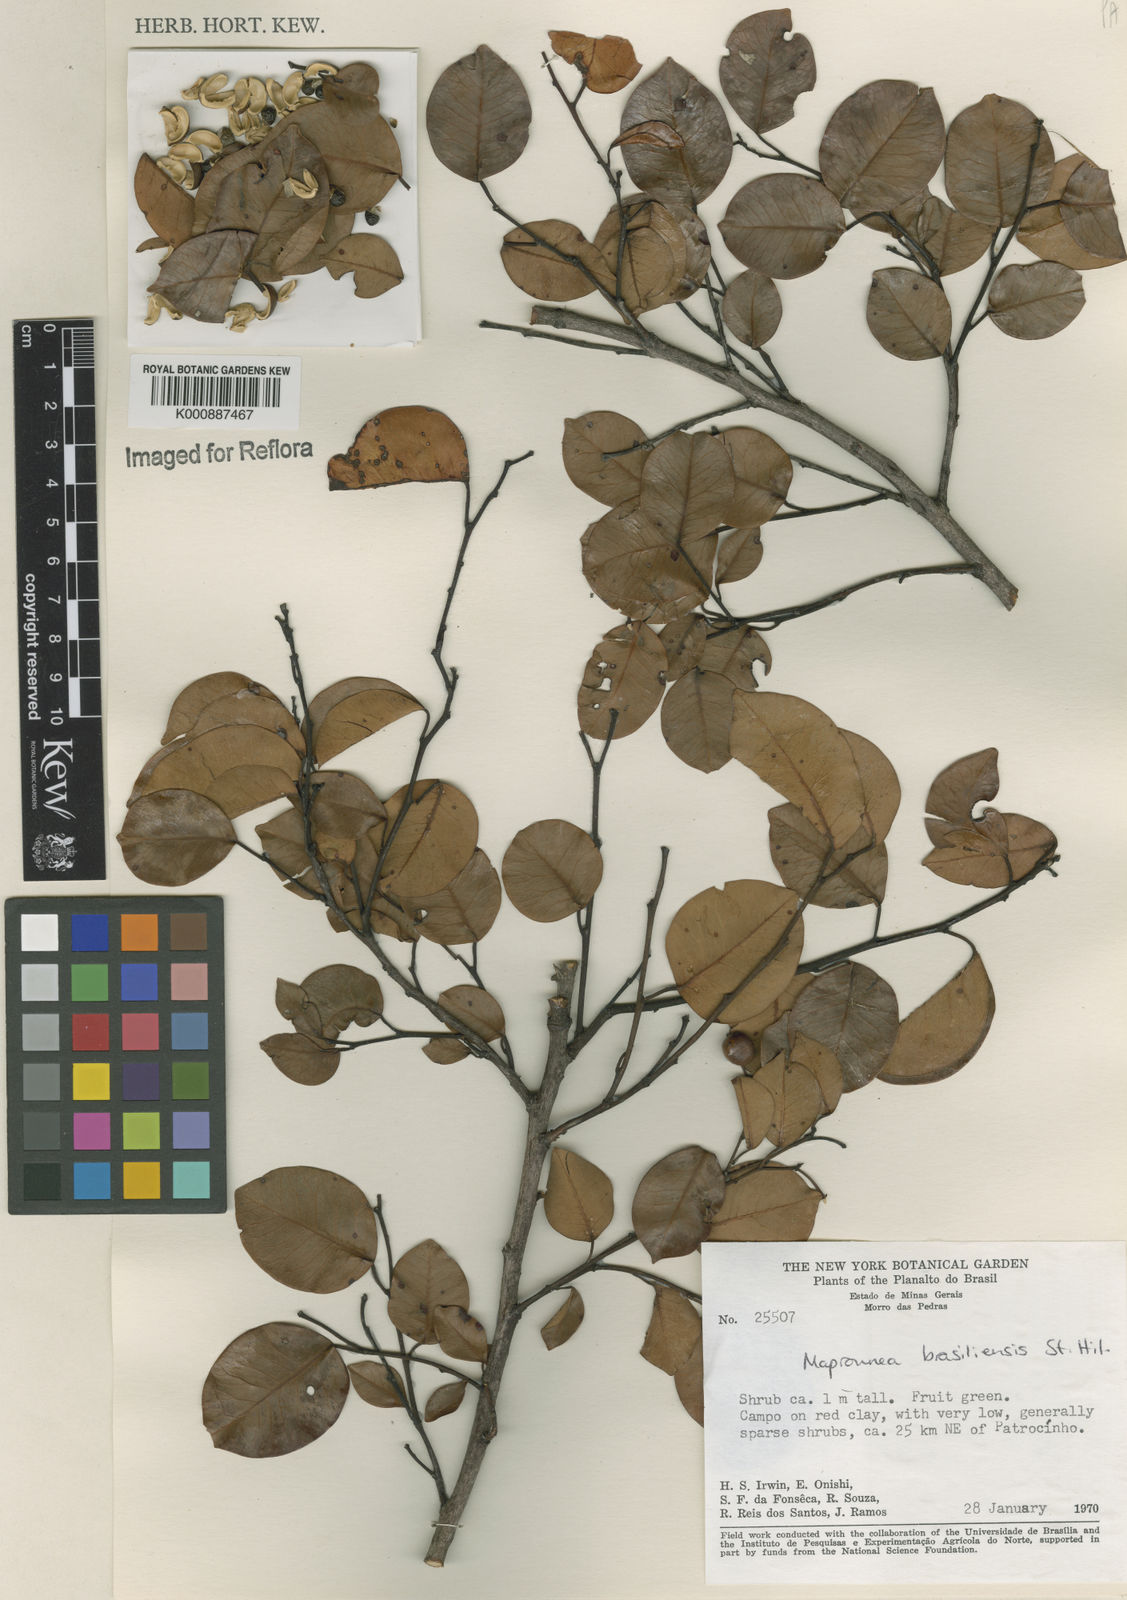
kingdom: Plantae
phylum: Tracheophyta
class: Magnoliopsida
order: Malpighiales
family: Euphorbiaceae
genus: Maprounea
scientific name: Maprounea brasiliensis
